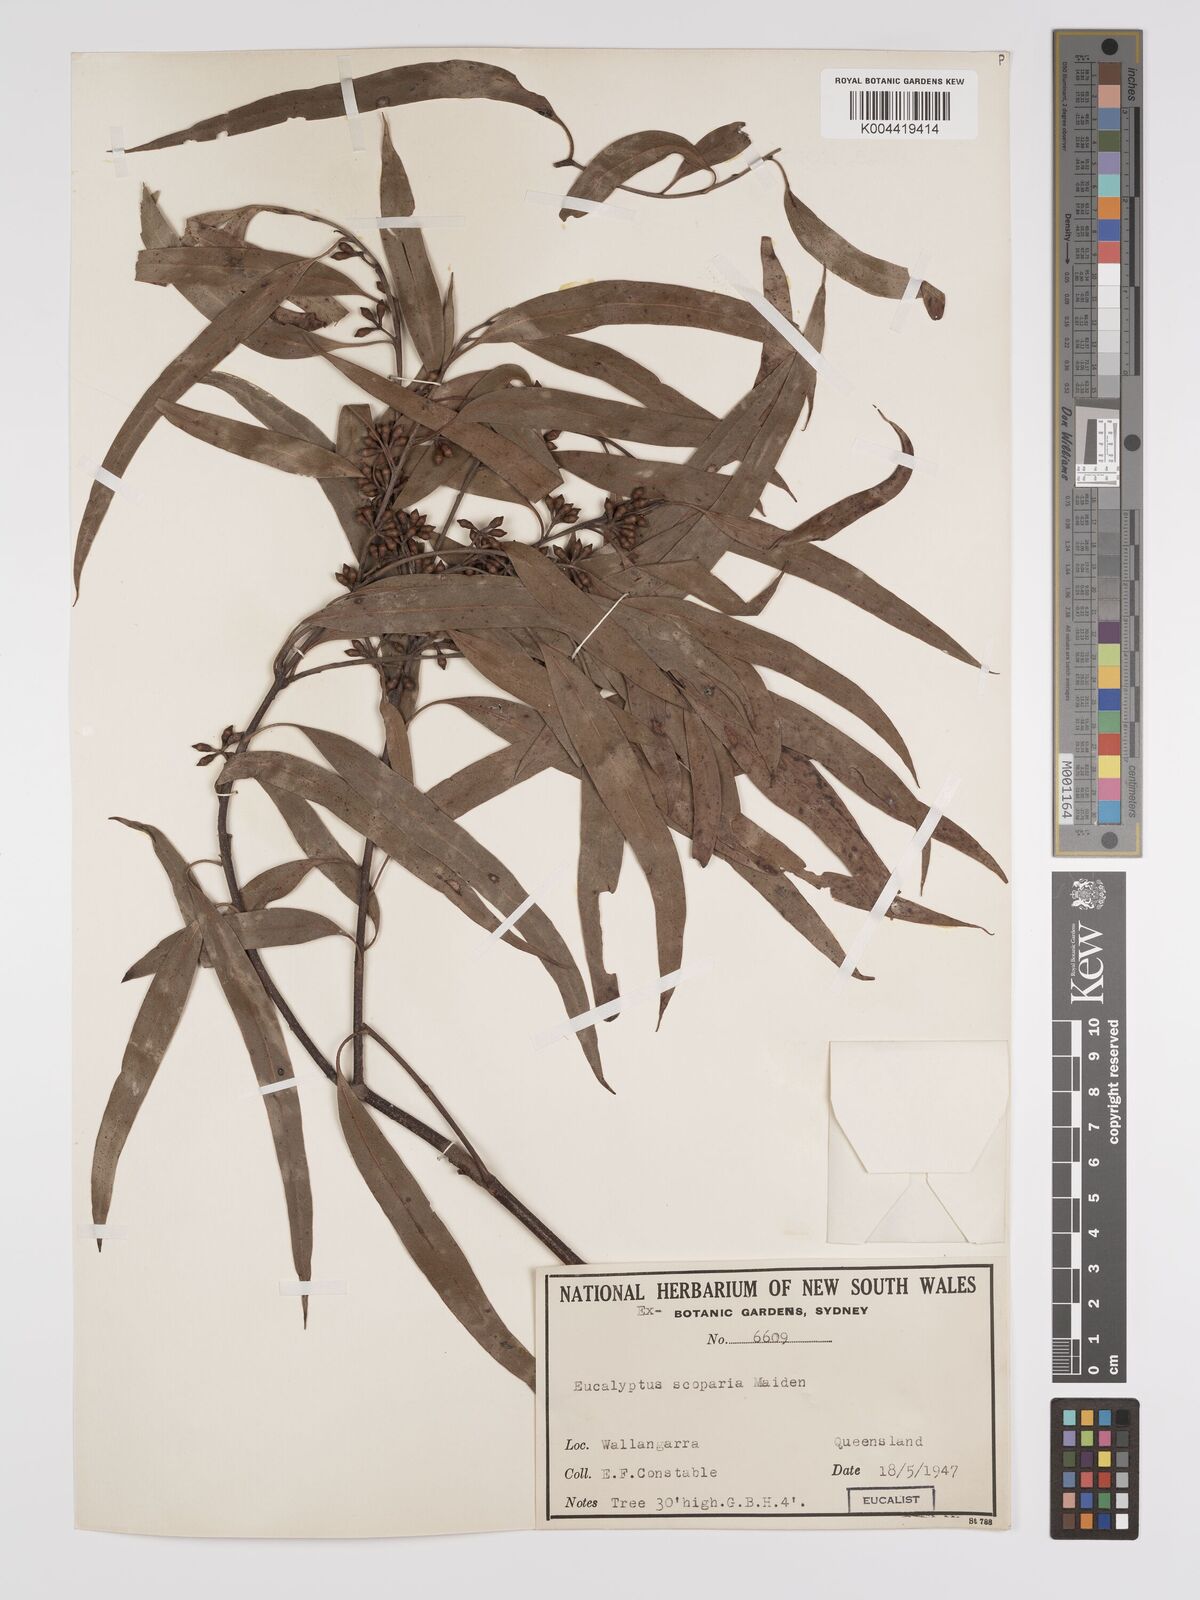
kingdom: Plantae
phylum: Tracheophyta
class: Magnoliopsida
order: Myrtales
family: Myrtaceae
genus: Eucalyptus
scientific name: Eucalyptus scoparia
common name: Wallangarra white gum
